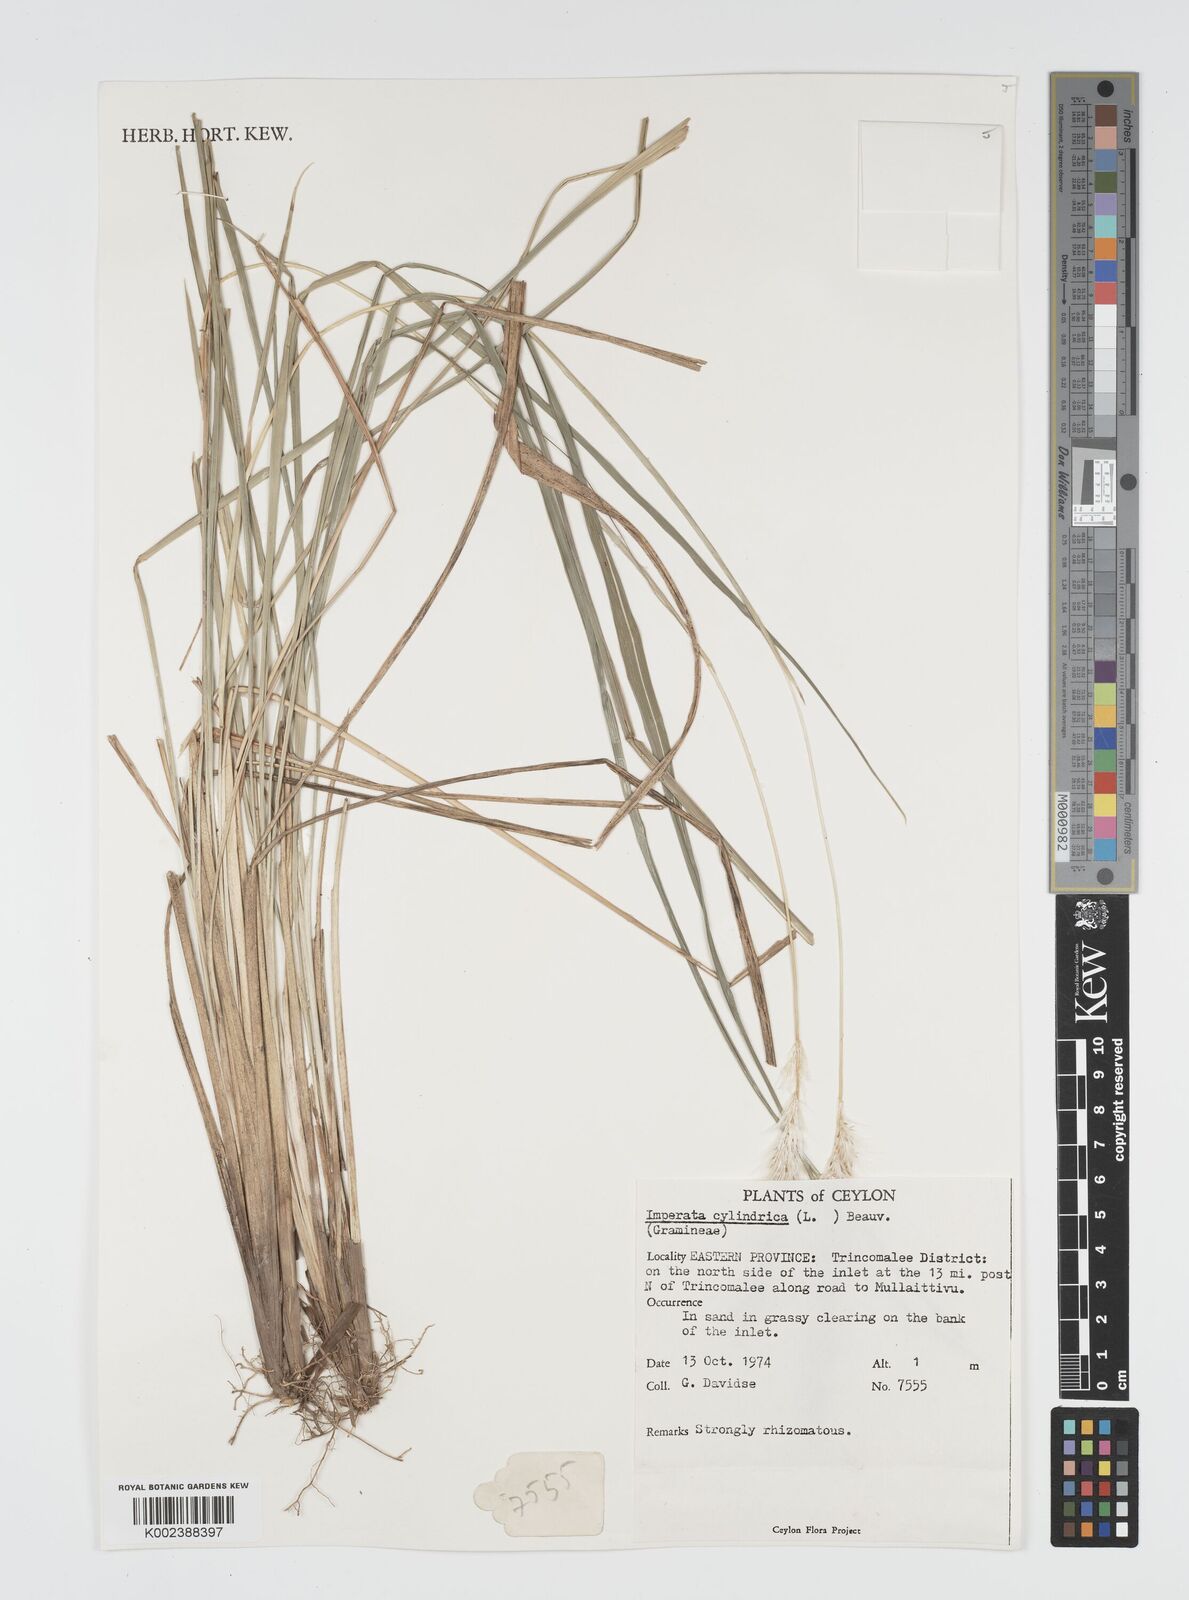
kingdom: Plantae
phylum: Tracheophyta
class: Liliopsida
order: Poales
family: Poaceae
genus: Imperata
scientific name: Imperata cylindrica
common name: Cogongrass
